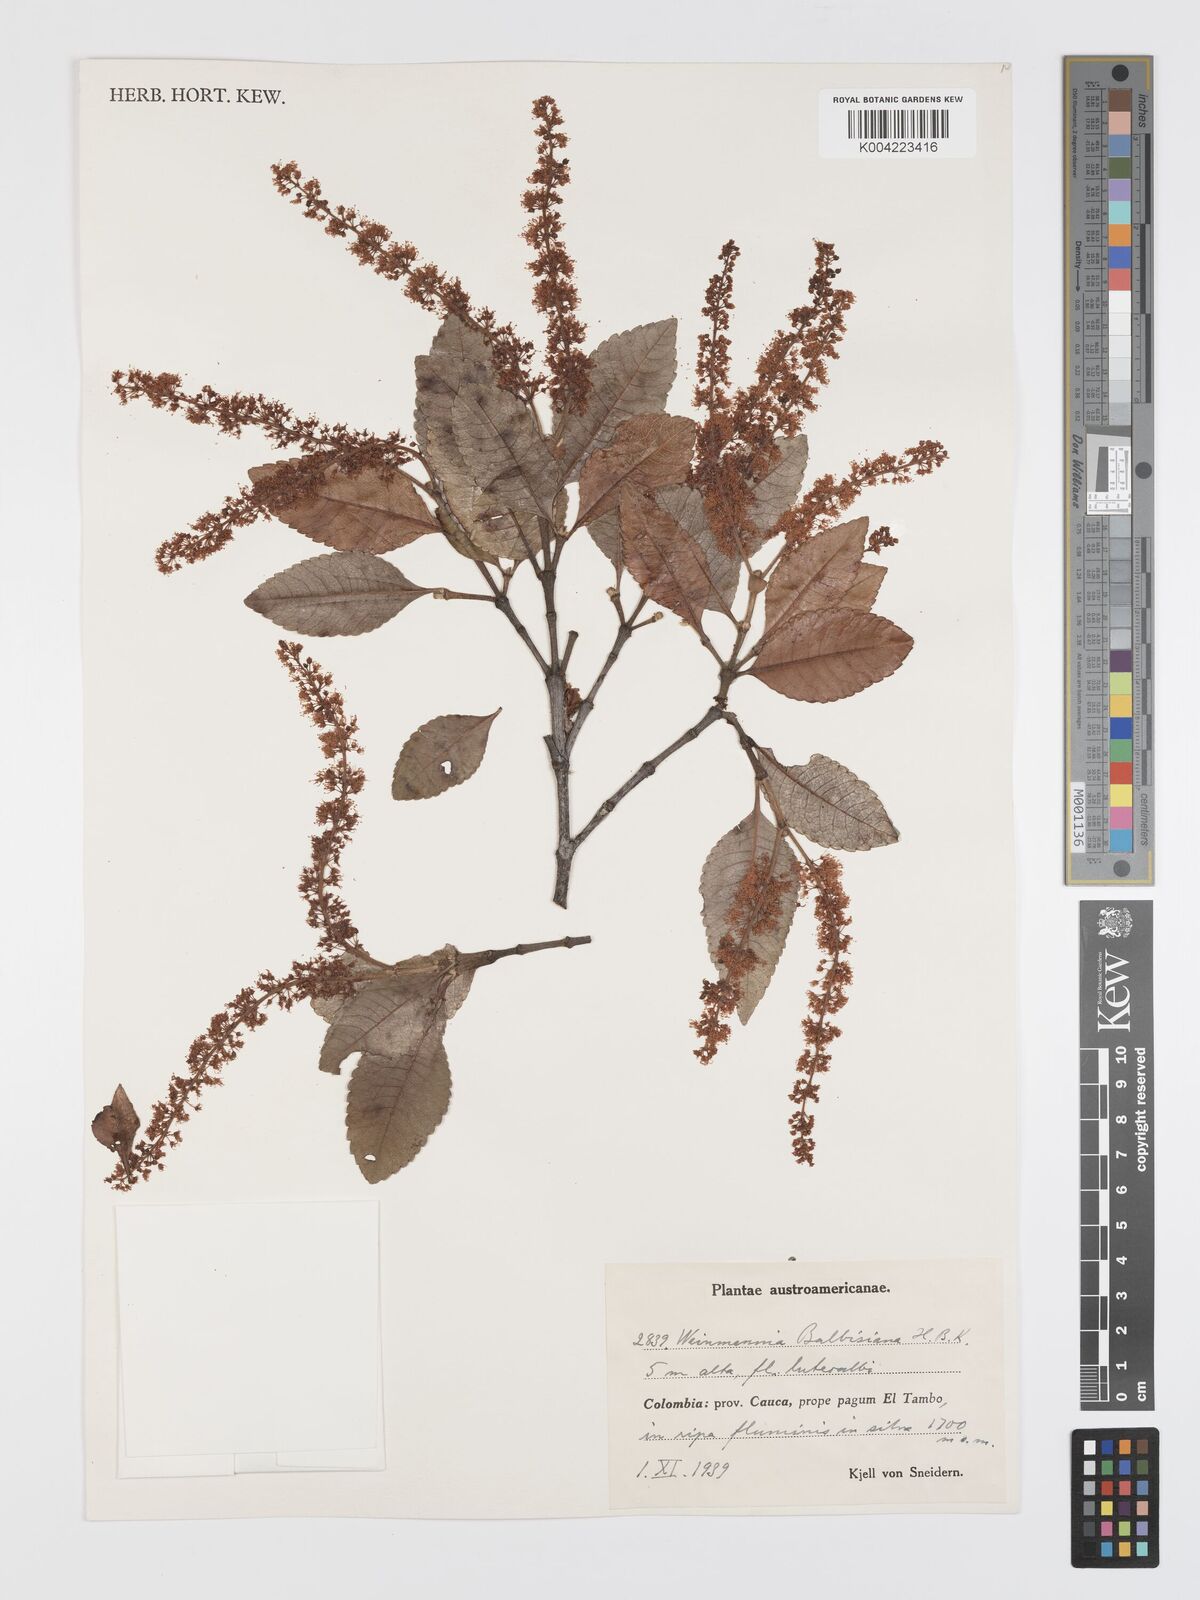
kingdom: Plantae
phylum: Tracheophyta
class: Magnoliopsida
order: Oxalidales
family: Cunoniaceae
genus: Weinmannia
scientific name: Weinmannia balbisana
